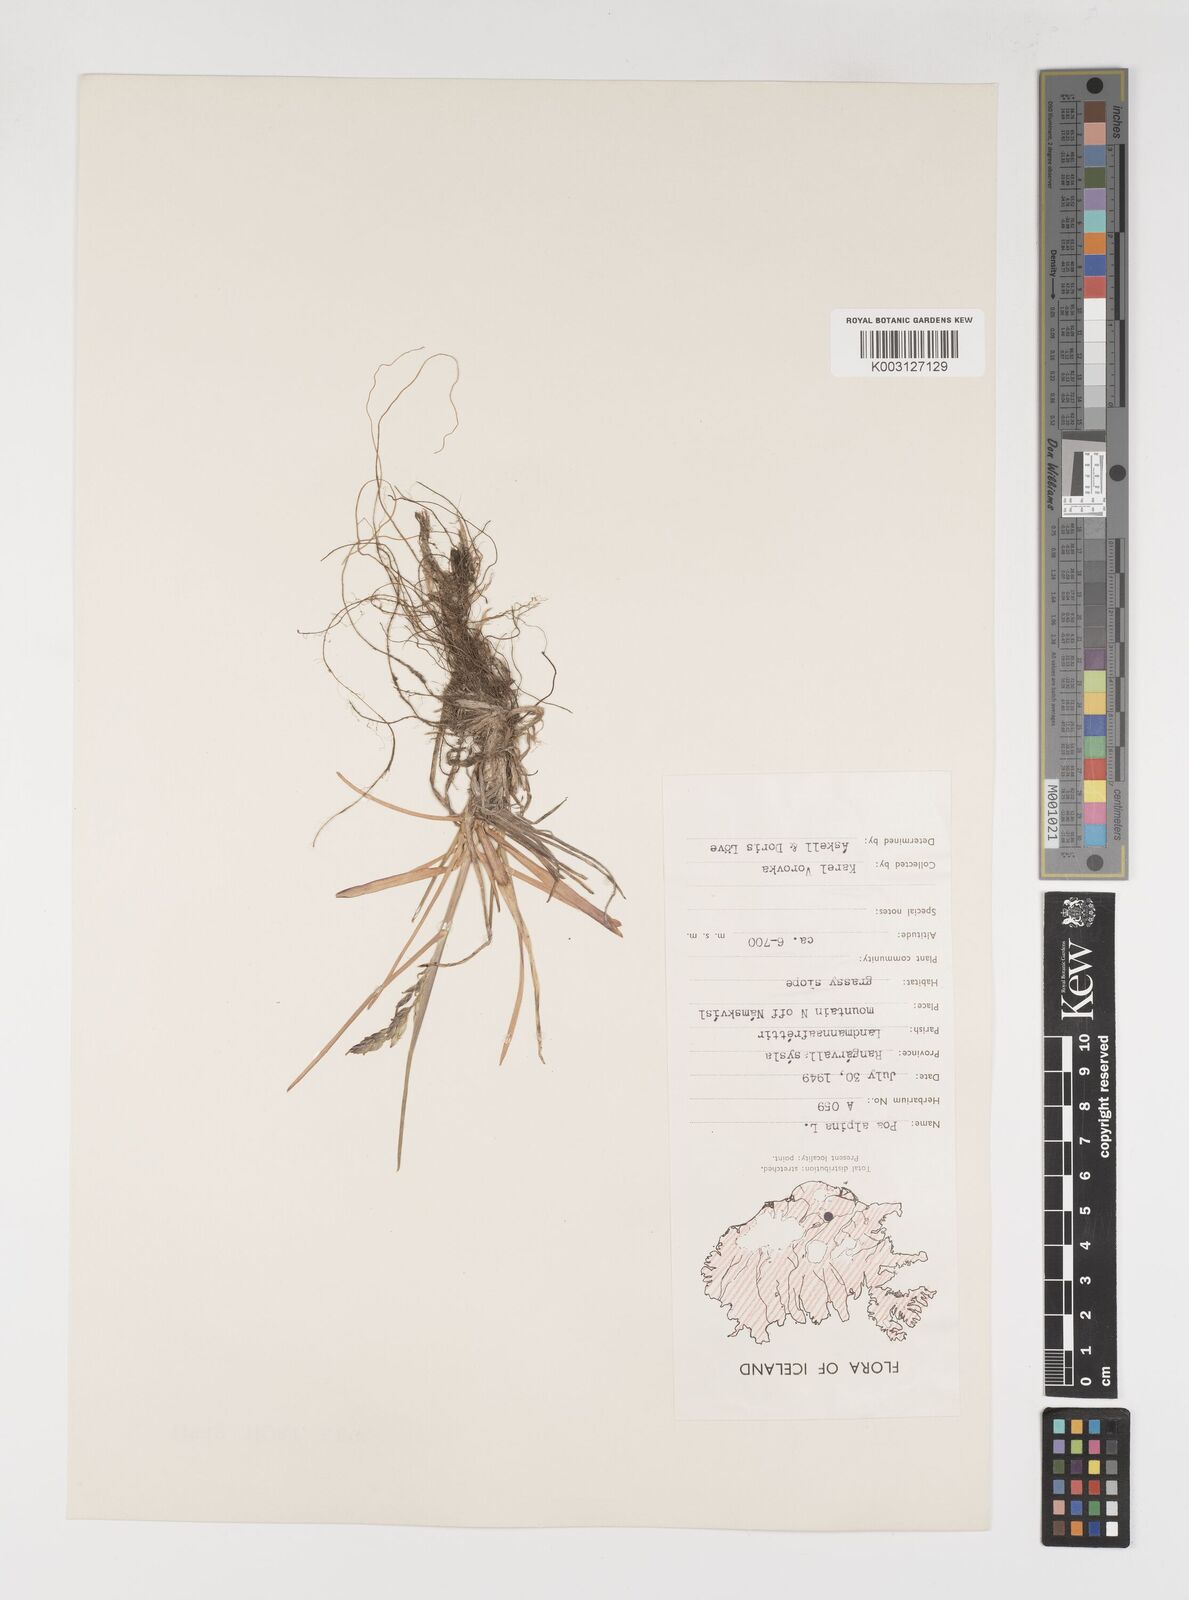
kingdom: Plantae
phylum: Tracheophyta
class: Liliopsida
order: Poales
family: Poaceae
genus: Poa
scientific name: Poa alpina
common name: Alpine bluegrass
